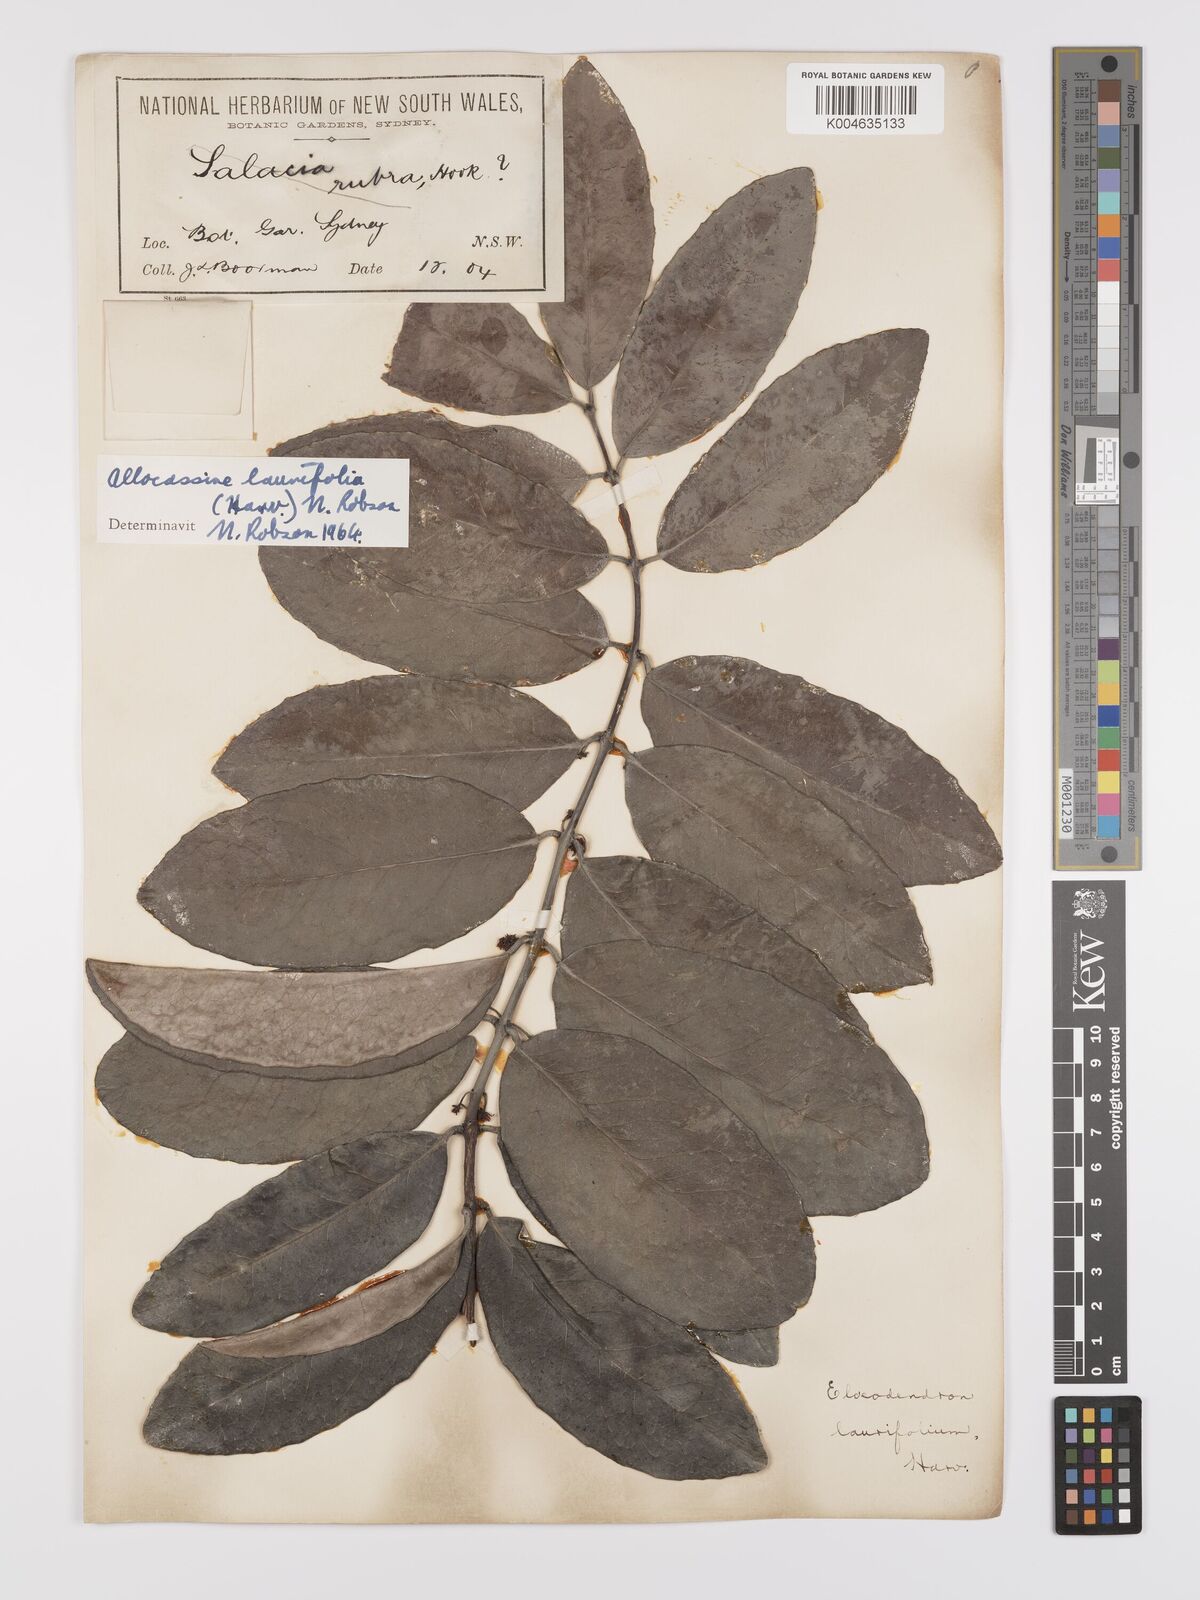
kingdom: Plantae
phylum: Tracheophyta
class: Magnoliopsida
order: Celastrales
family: Celastraceae
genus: Allocassine
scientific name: Allocassine laurifolia
